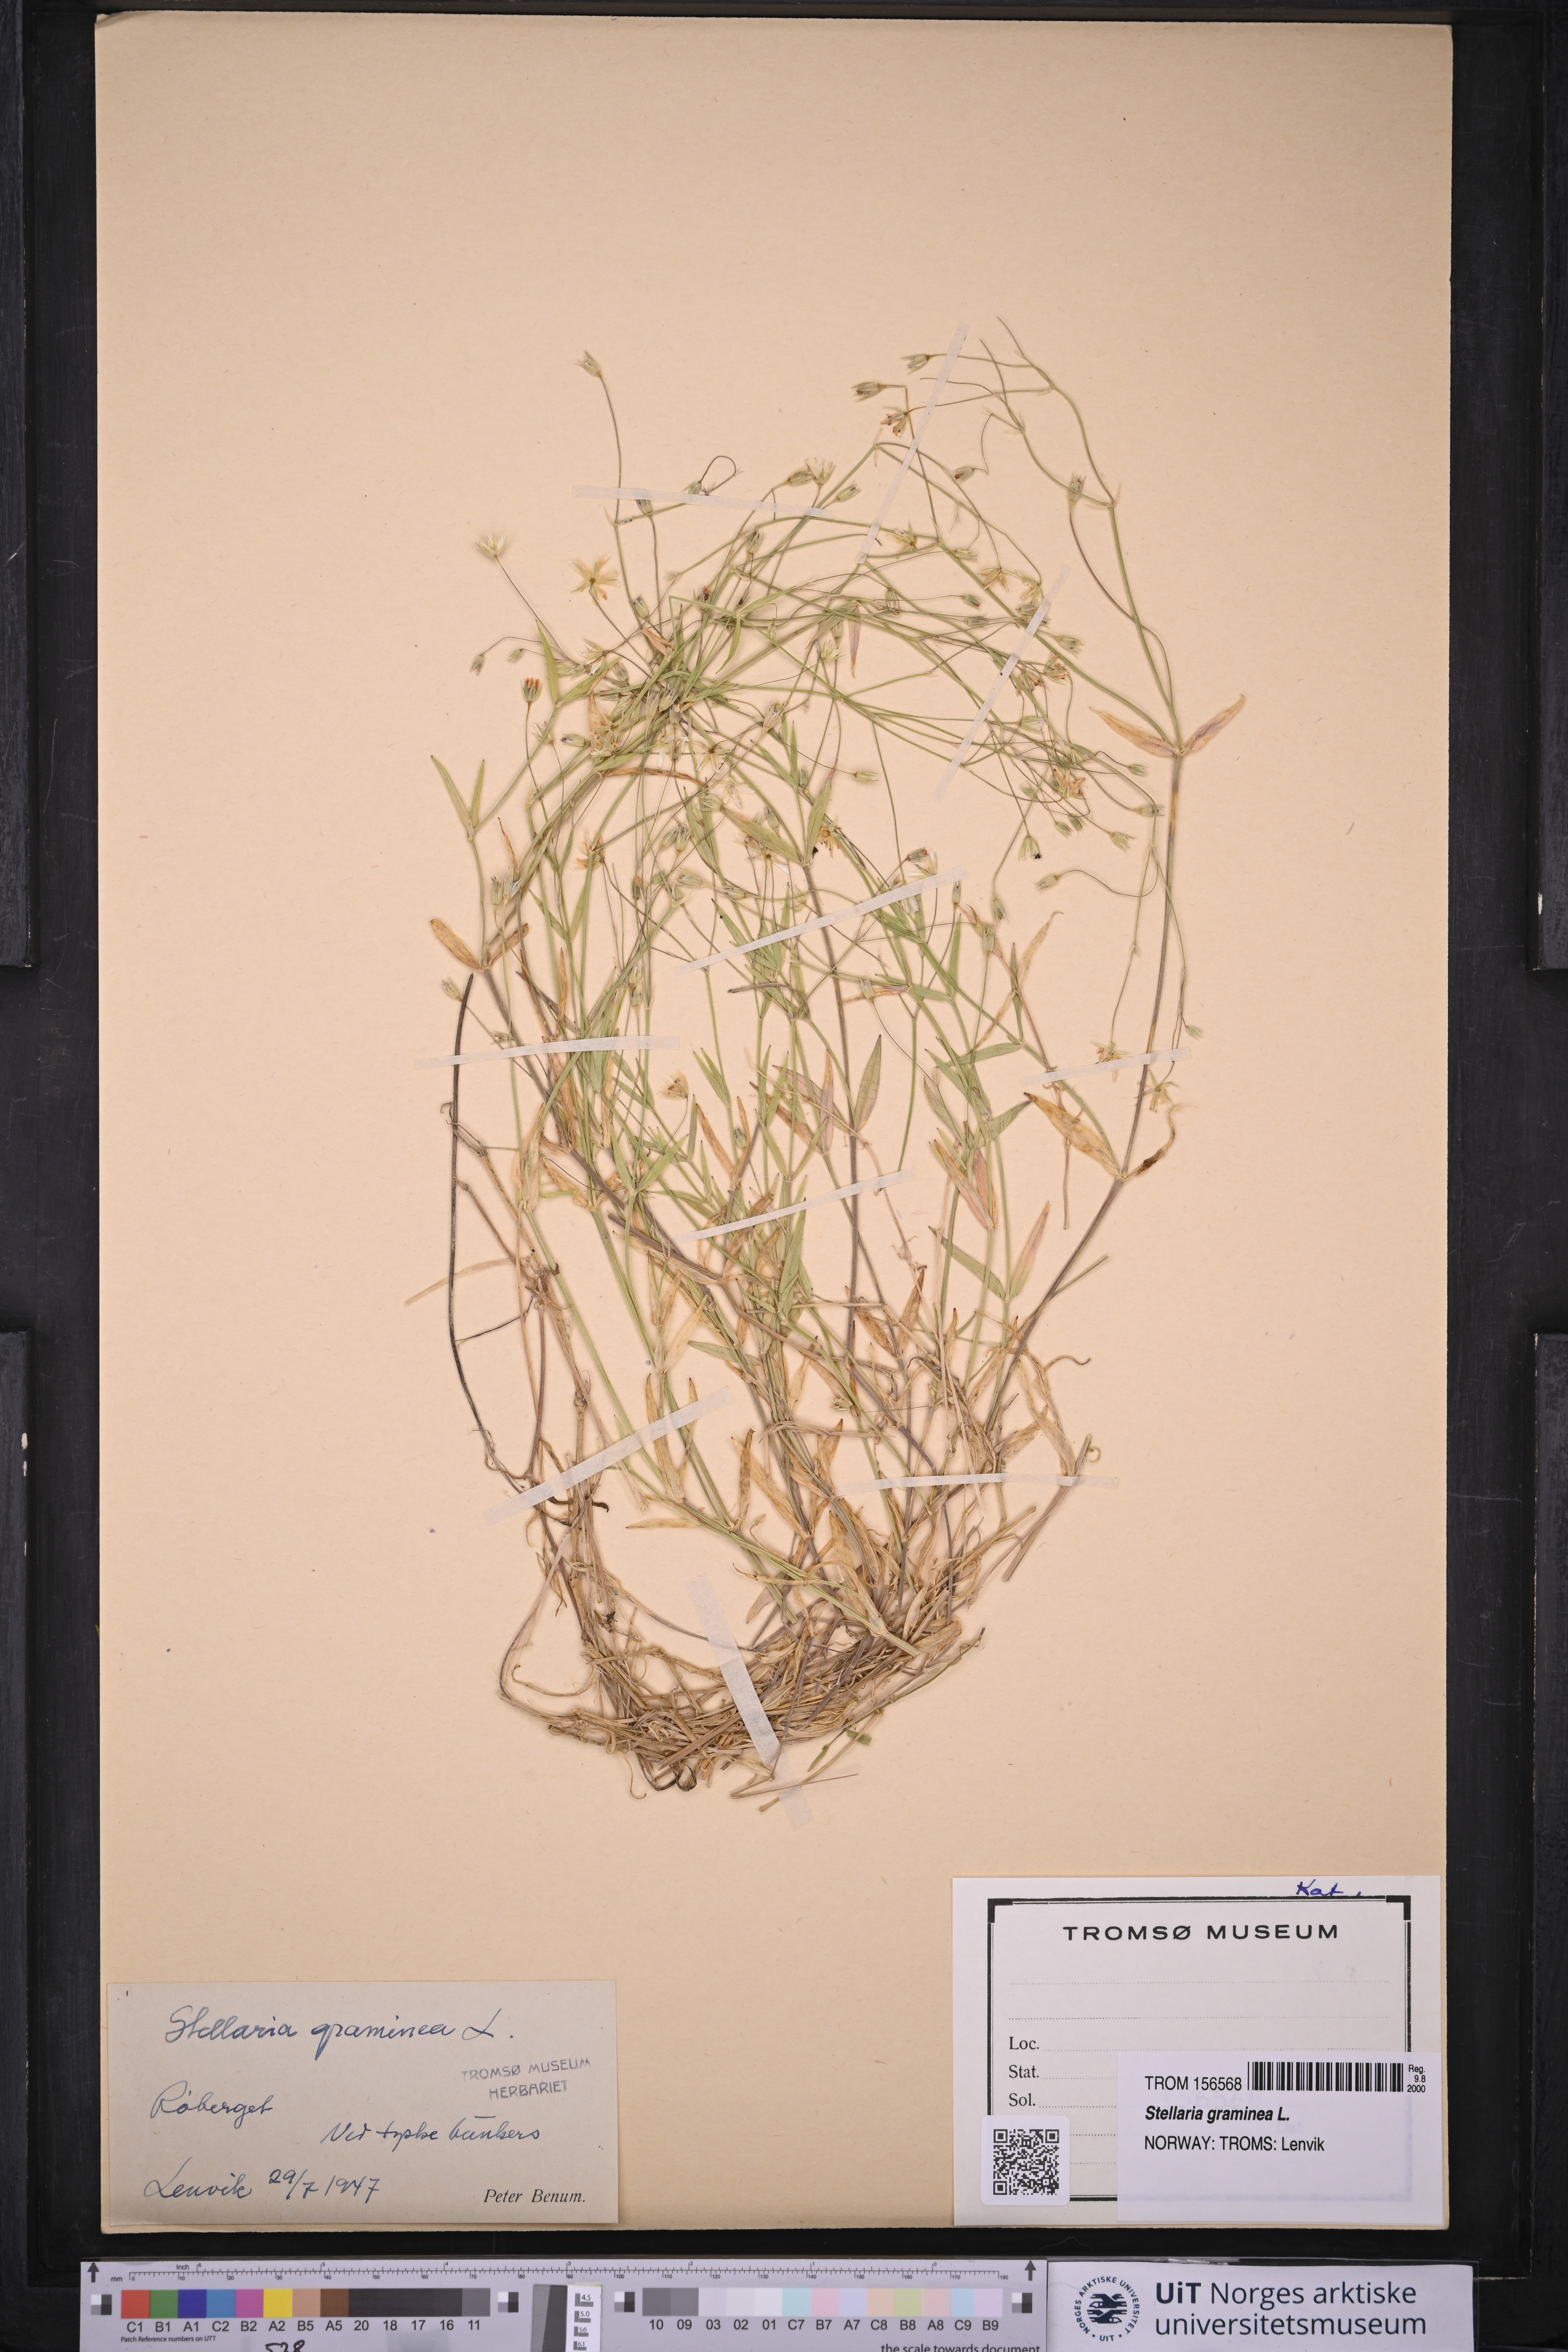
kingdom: Plantae
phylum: Tracheophyta
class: Magnoliopsida
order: Caryophyllales
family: Caryophyllaceae
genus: Stellaria
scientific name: Stellaria graminea
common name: Grass-like starwort
